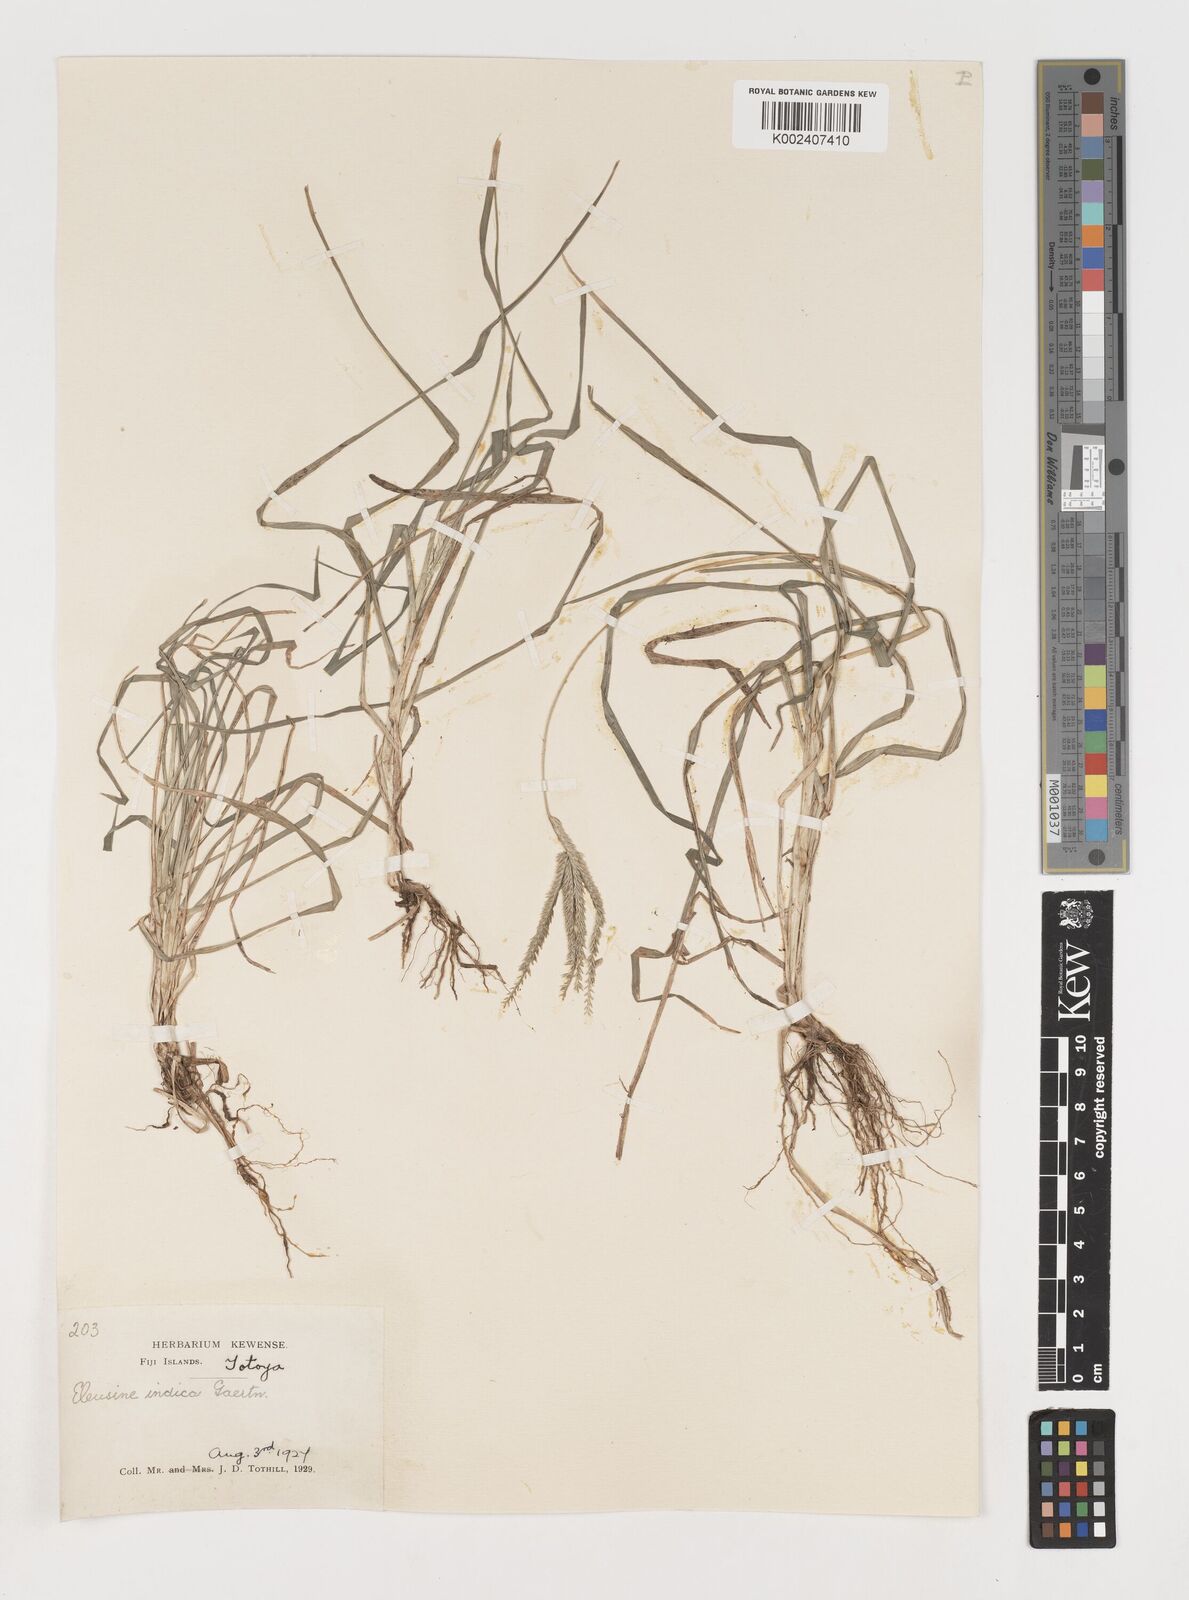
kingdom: Plantae
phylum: Tracheophyta
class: Liliopsida
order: Poales
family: Poaceae
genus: Eleusine
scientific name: Eleusine indica
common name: Yard-grass
